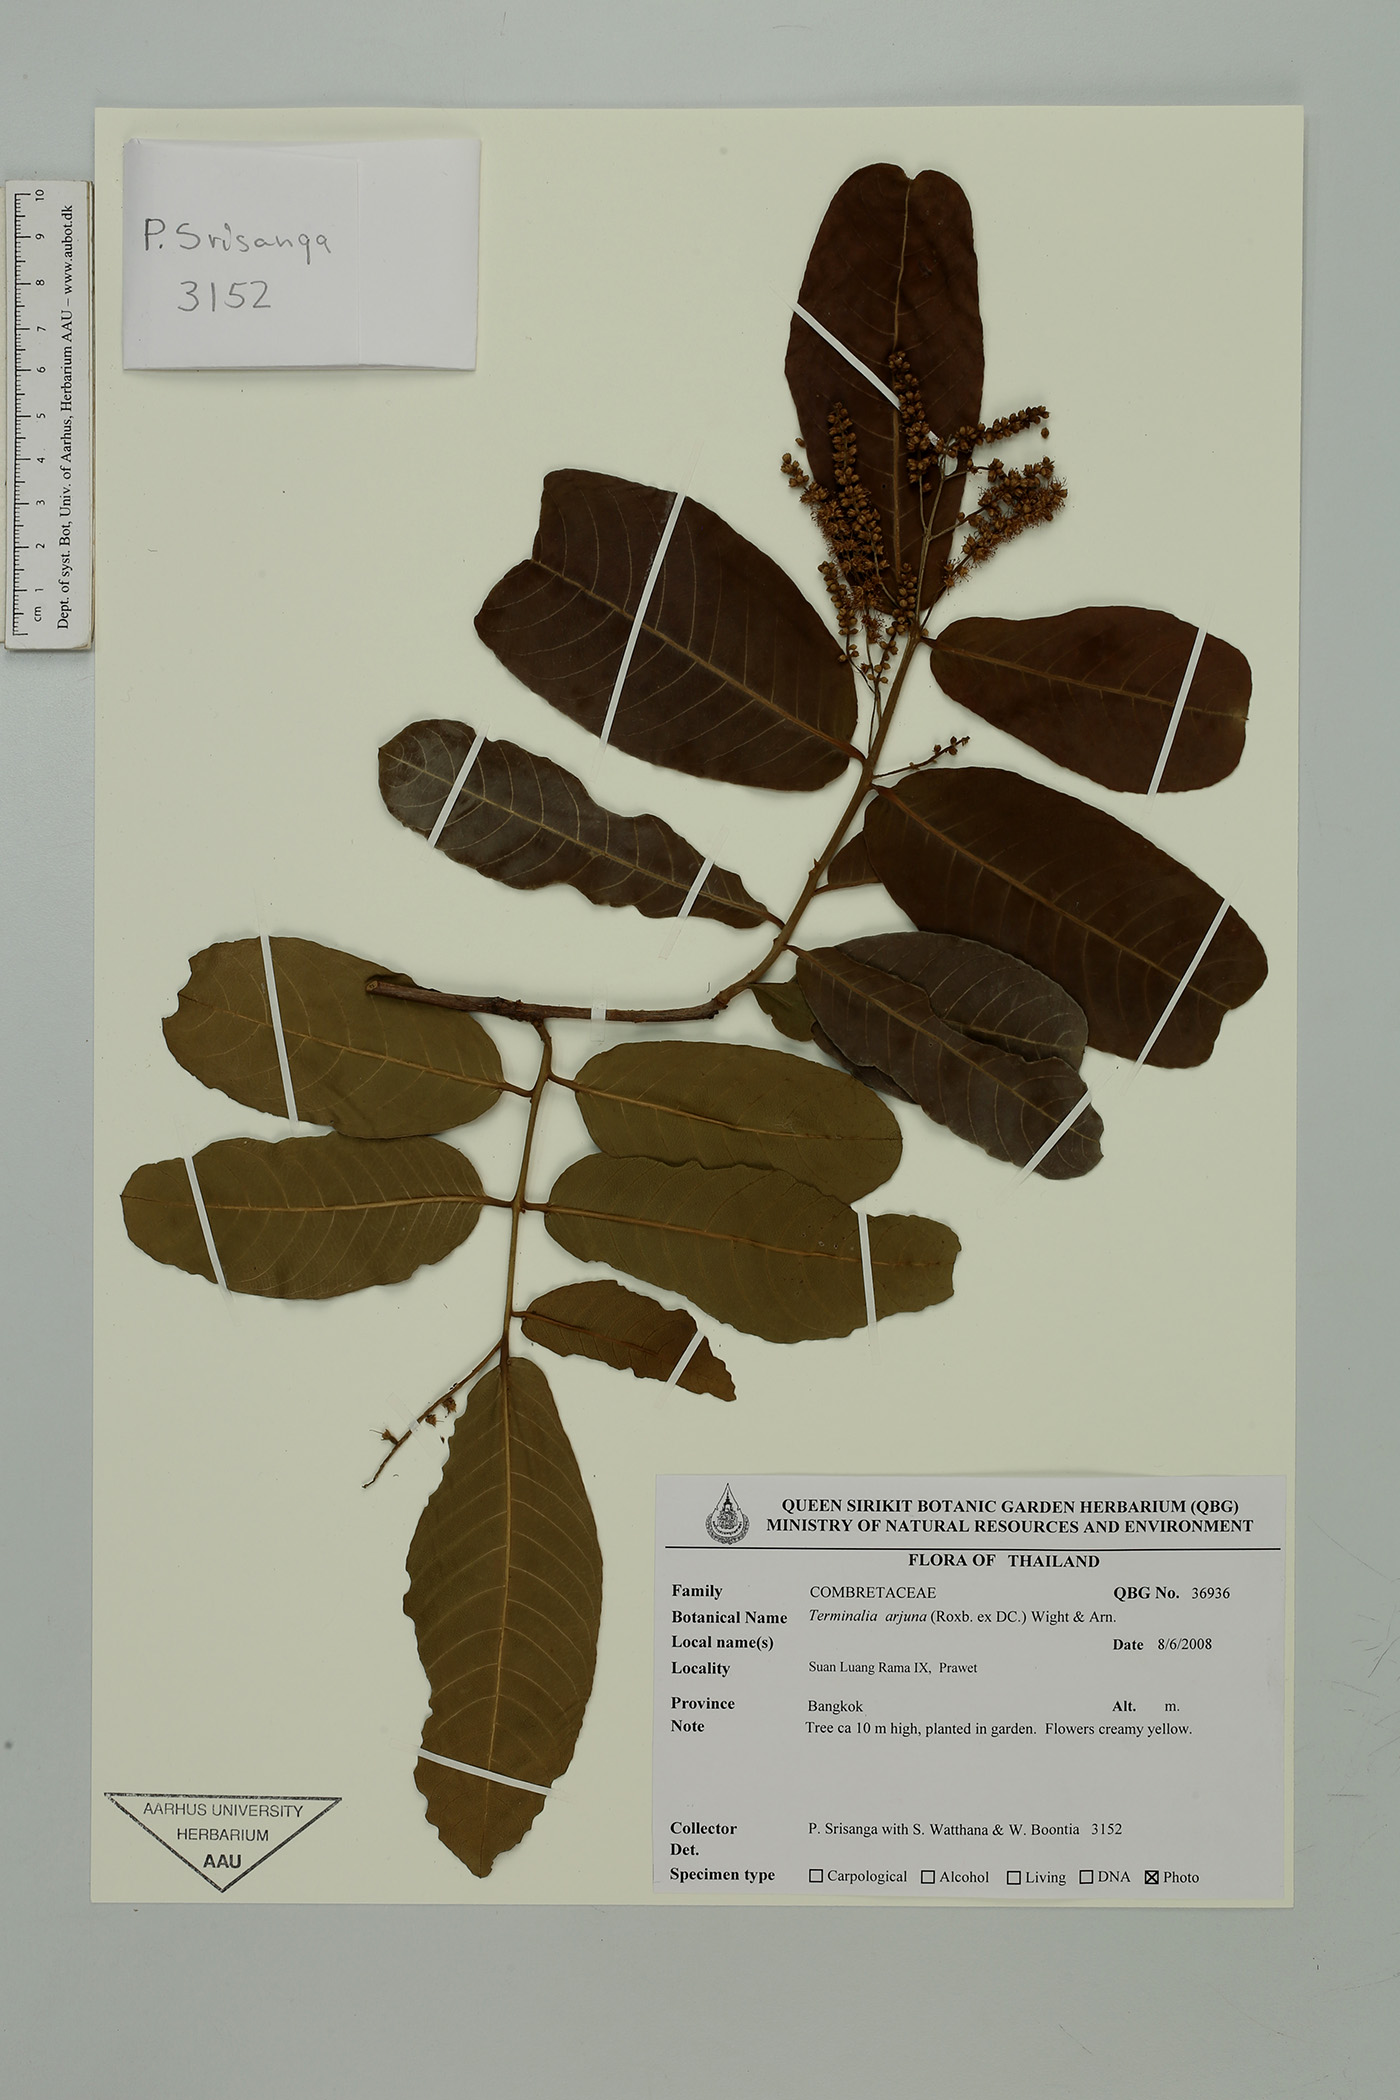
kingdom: Plantae
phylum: Tracheophyta
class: Magnoliopsida
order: Myrtales
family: Combretaceae
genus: Terminalia
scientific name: Terminalia arjuna
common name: Arjun
